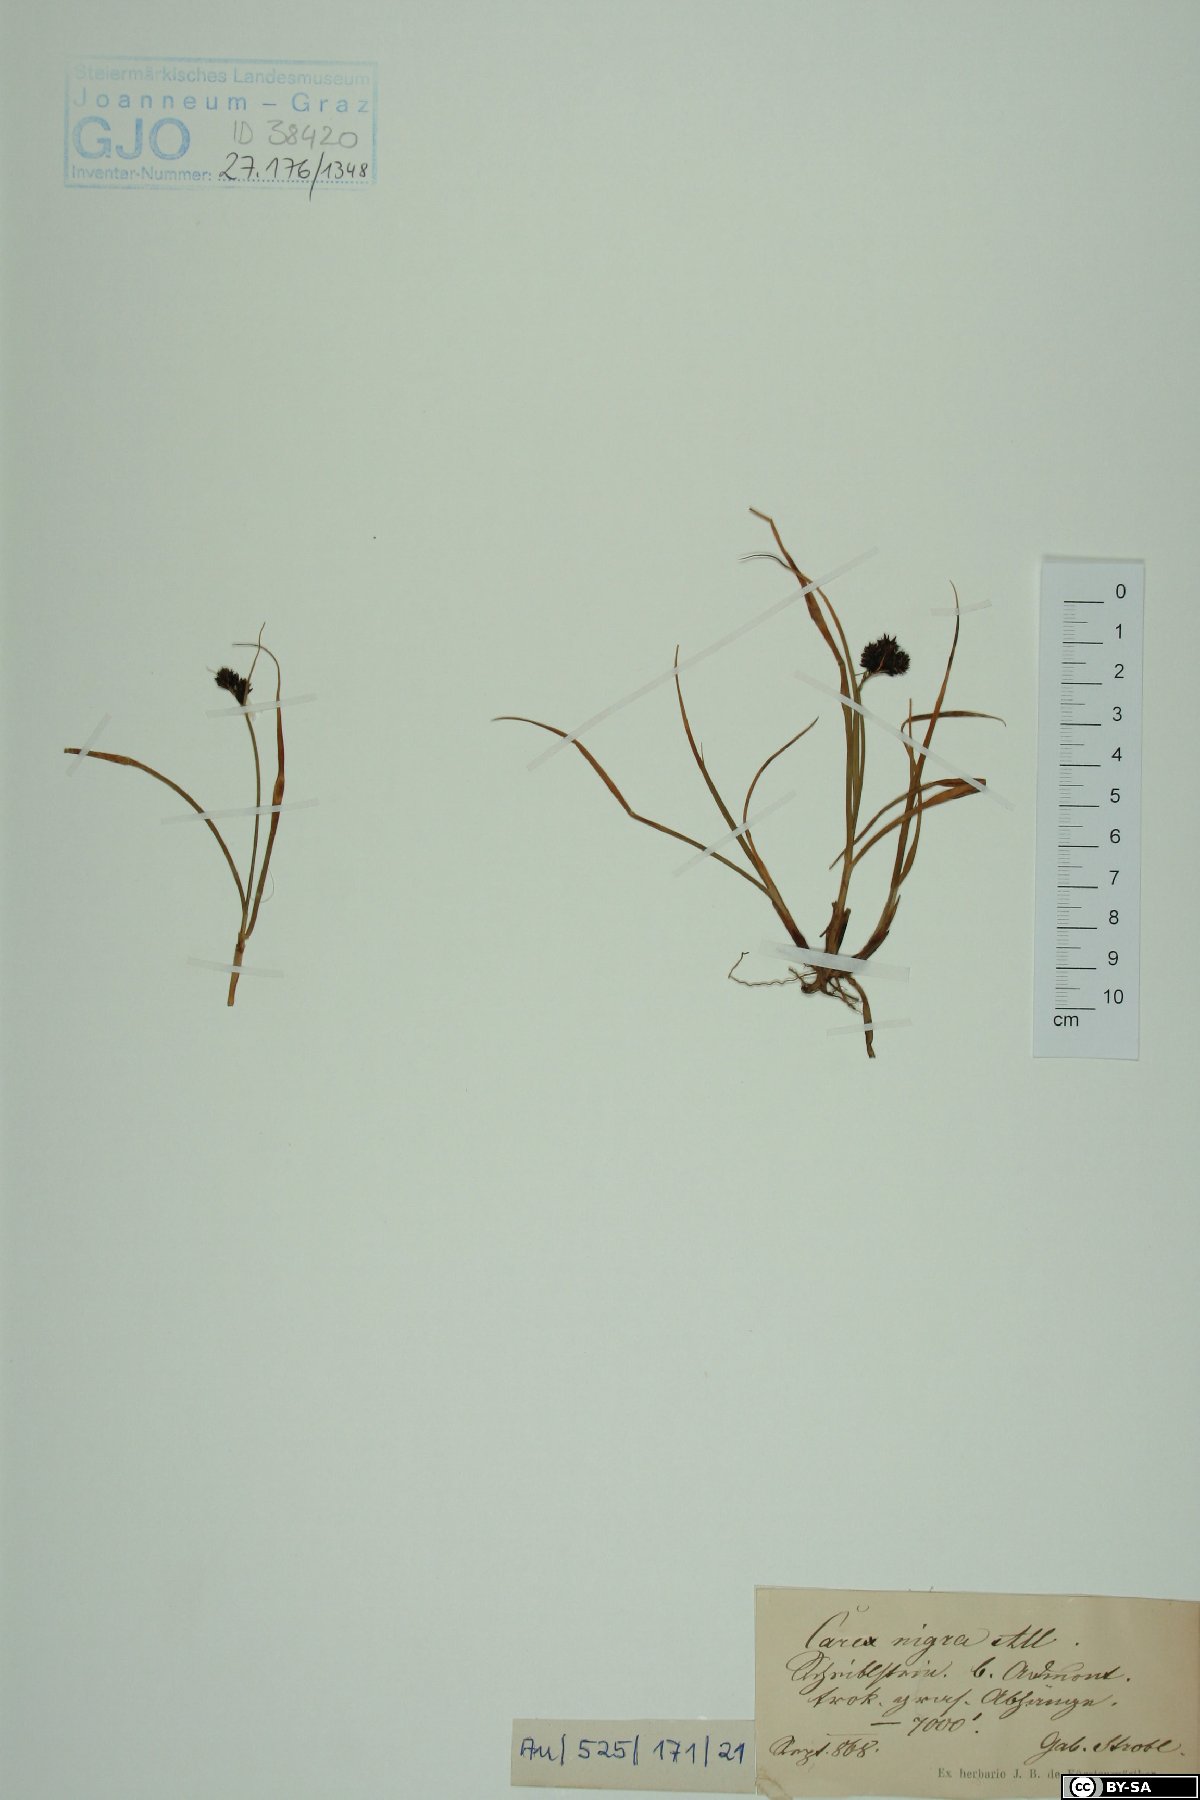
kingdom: Plantae
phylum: Tracheophyta
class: Liliopsida
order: Poales
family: Cyperaceae
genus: Carex
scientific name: Carex nigra
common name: Common sedge
